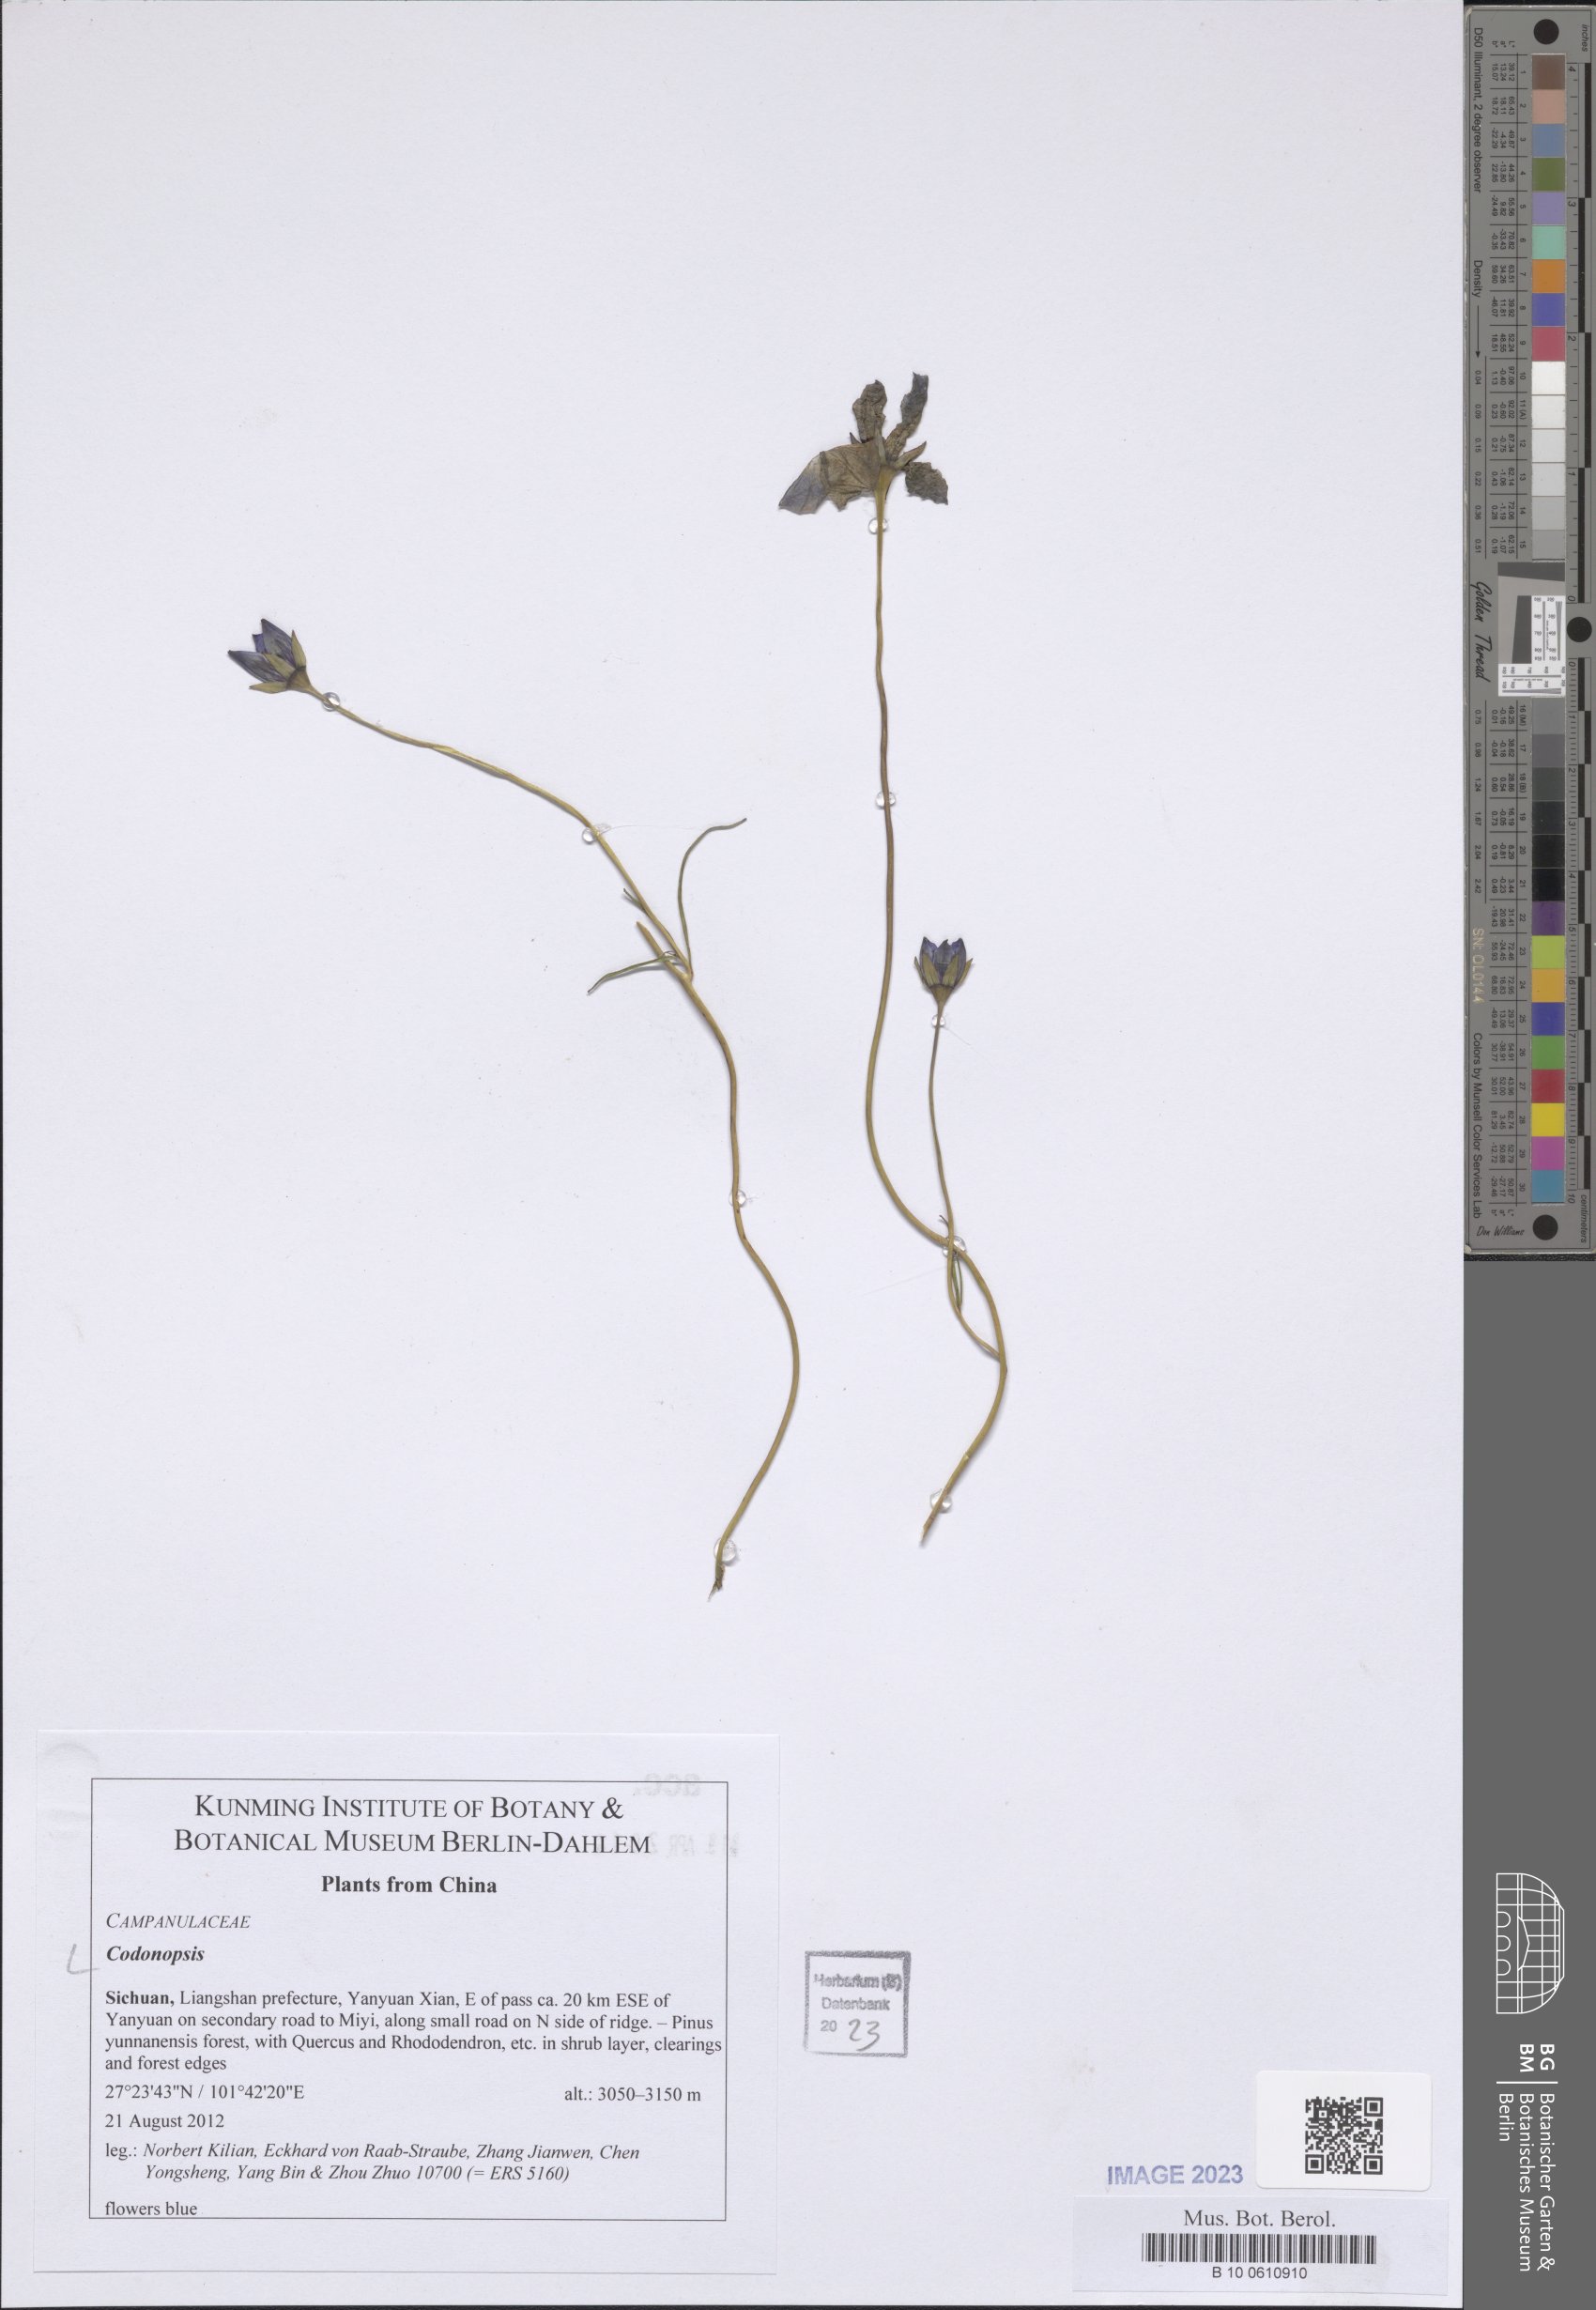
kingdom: Plantae
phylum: Tracheophyta
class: Magnoliopsida
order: Asterales
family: Campanulaceae
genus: Codonopsis
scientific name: Codonopsis
